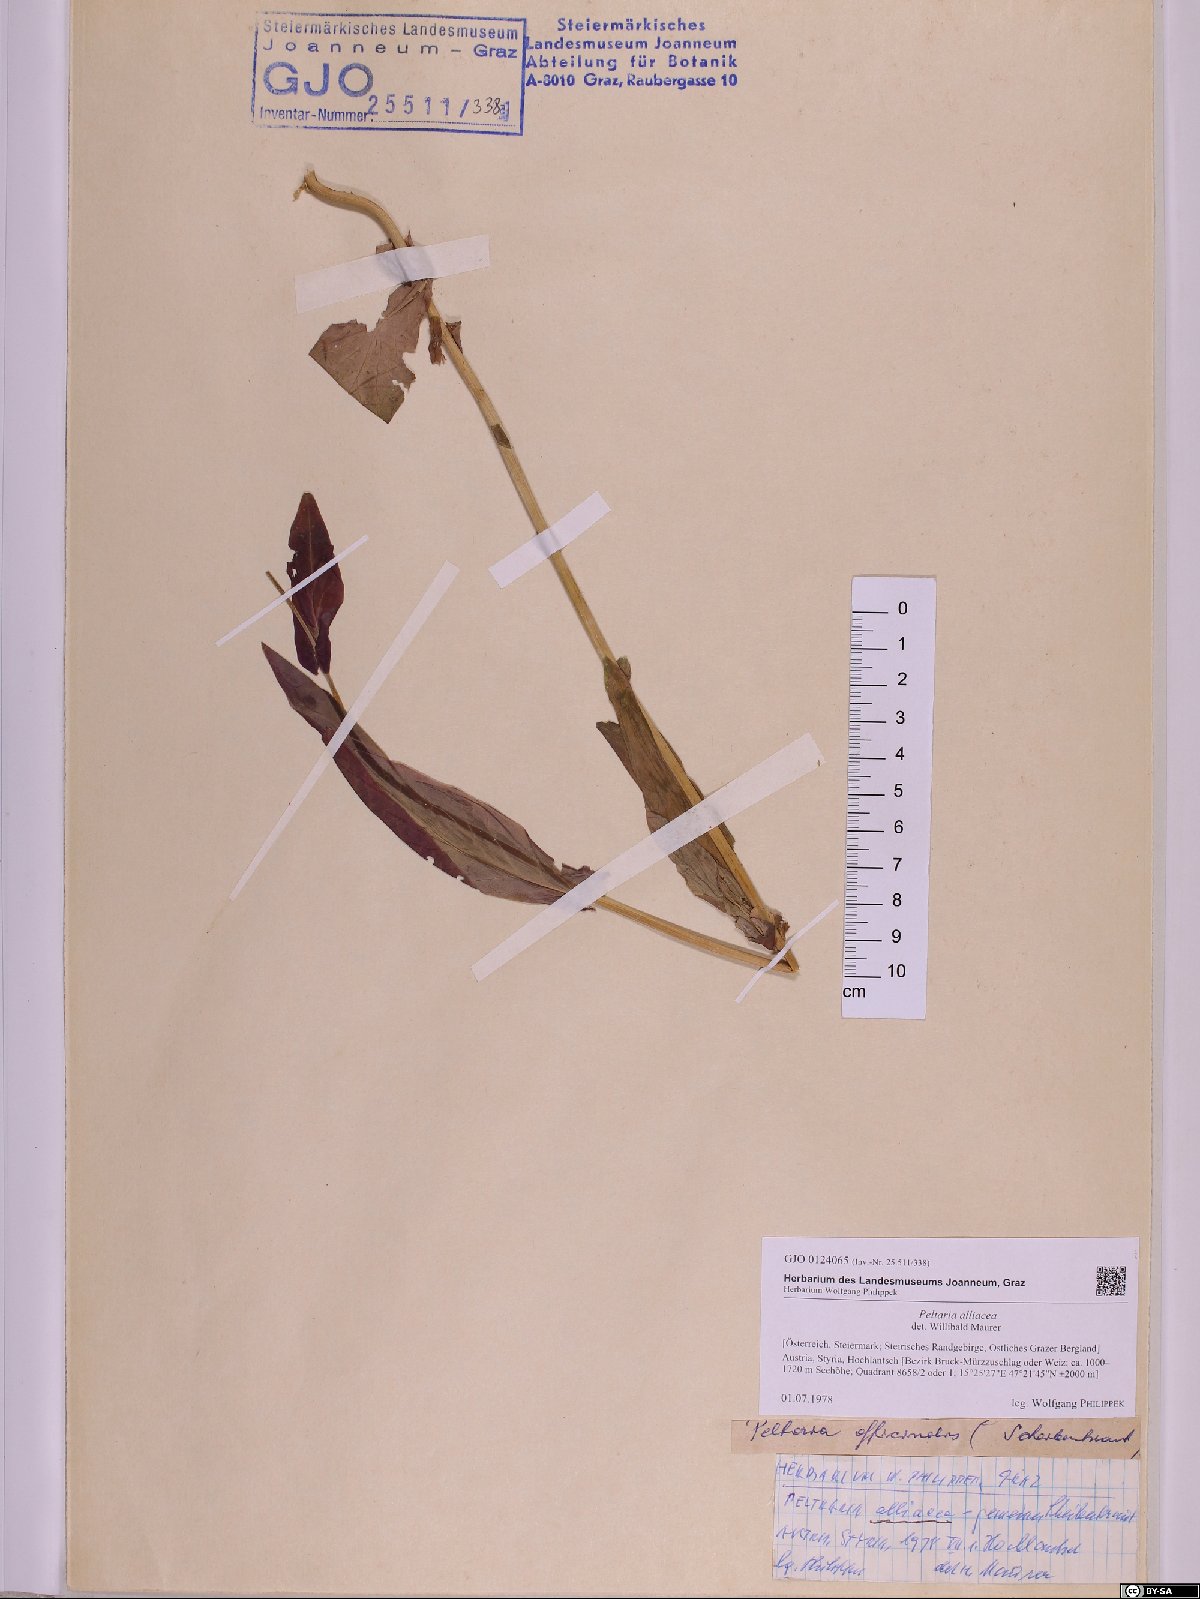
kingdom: Plantae
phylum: Tracheophyta
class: Magnoliopsida
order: Brassicales
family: Brassicaceae
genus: Peltaria
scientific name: Peltaria alliacea
